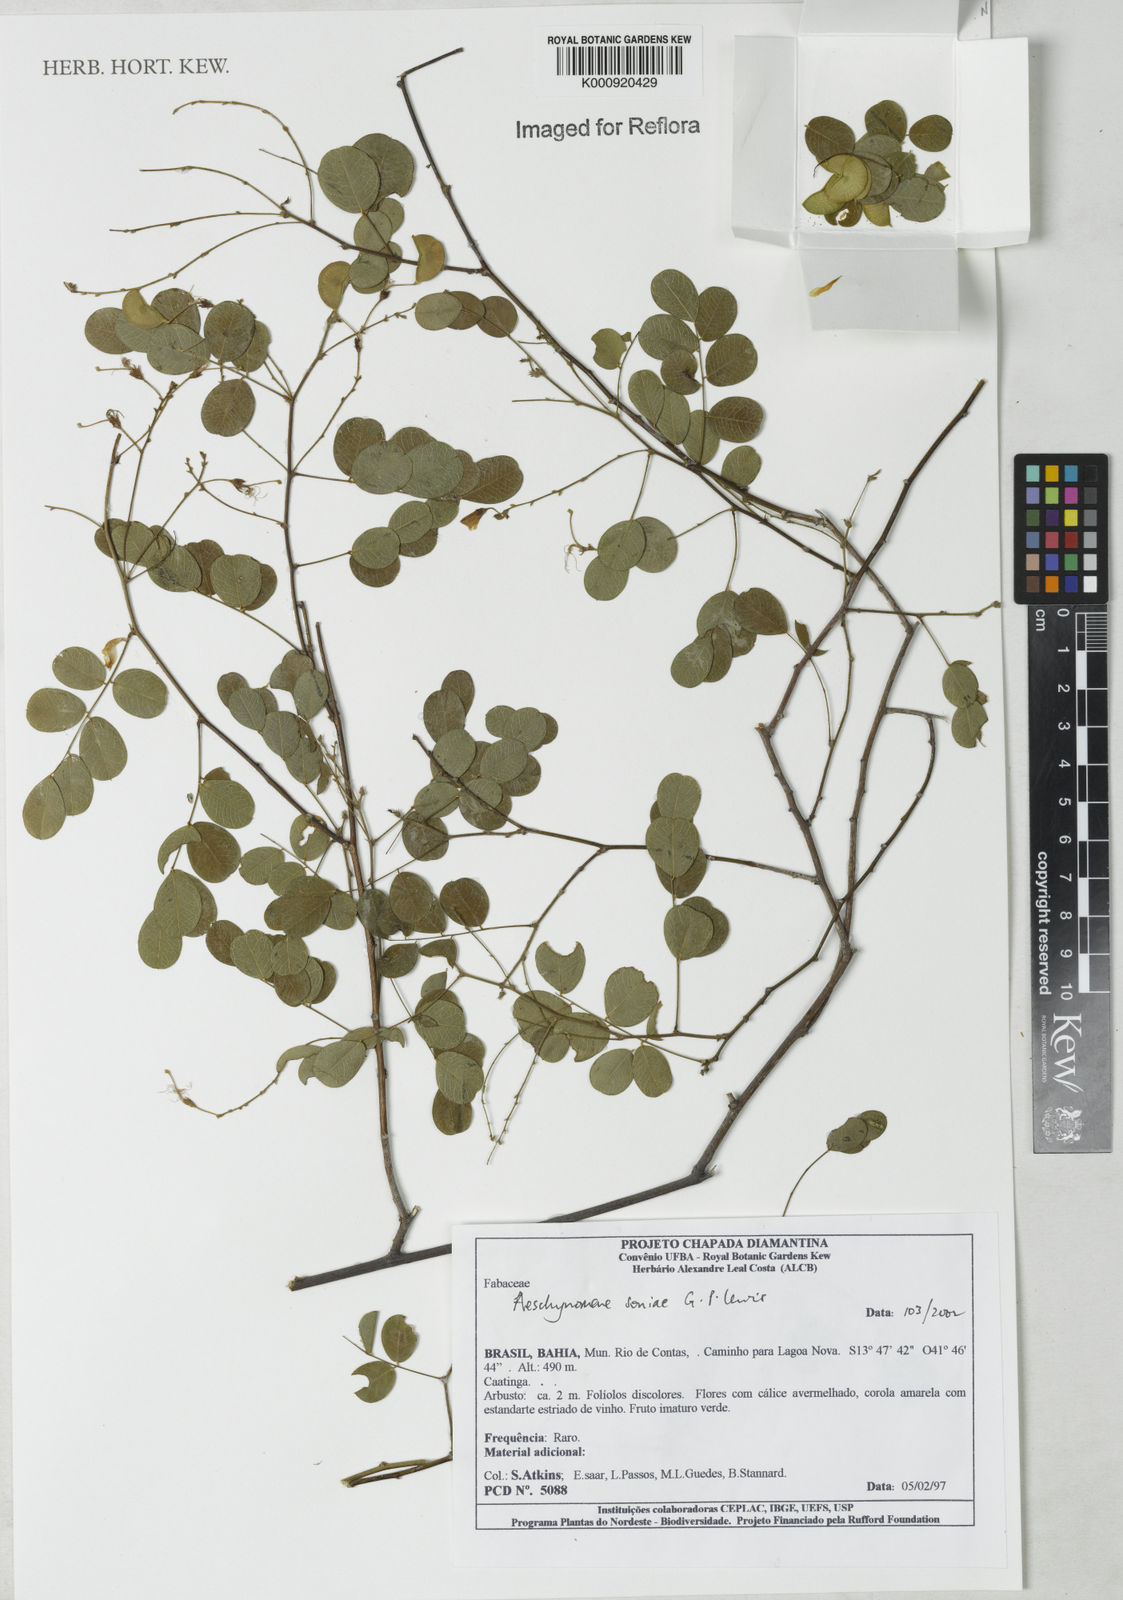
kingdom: Plantae
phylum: Tracheophyta
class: Magnoliopsida
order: Fabales
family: Fabaceae
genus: Ctenodon
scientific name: Ctenodon soniae
